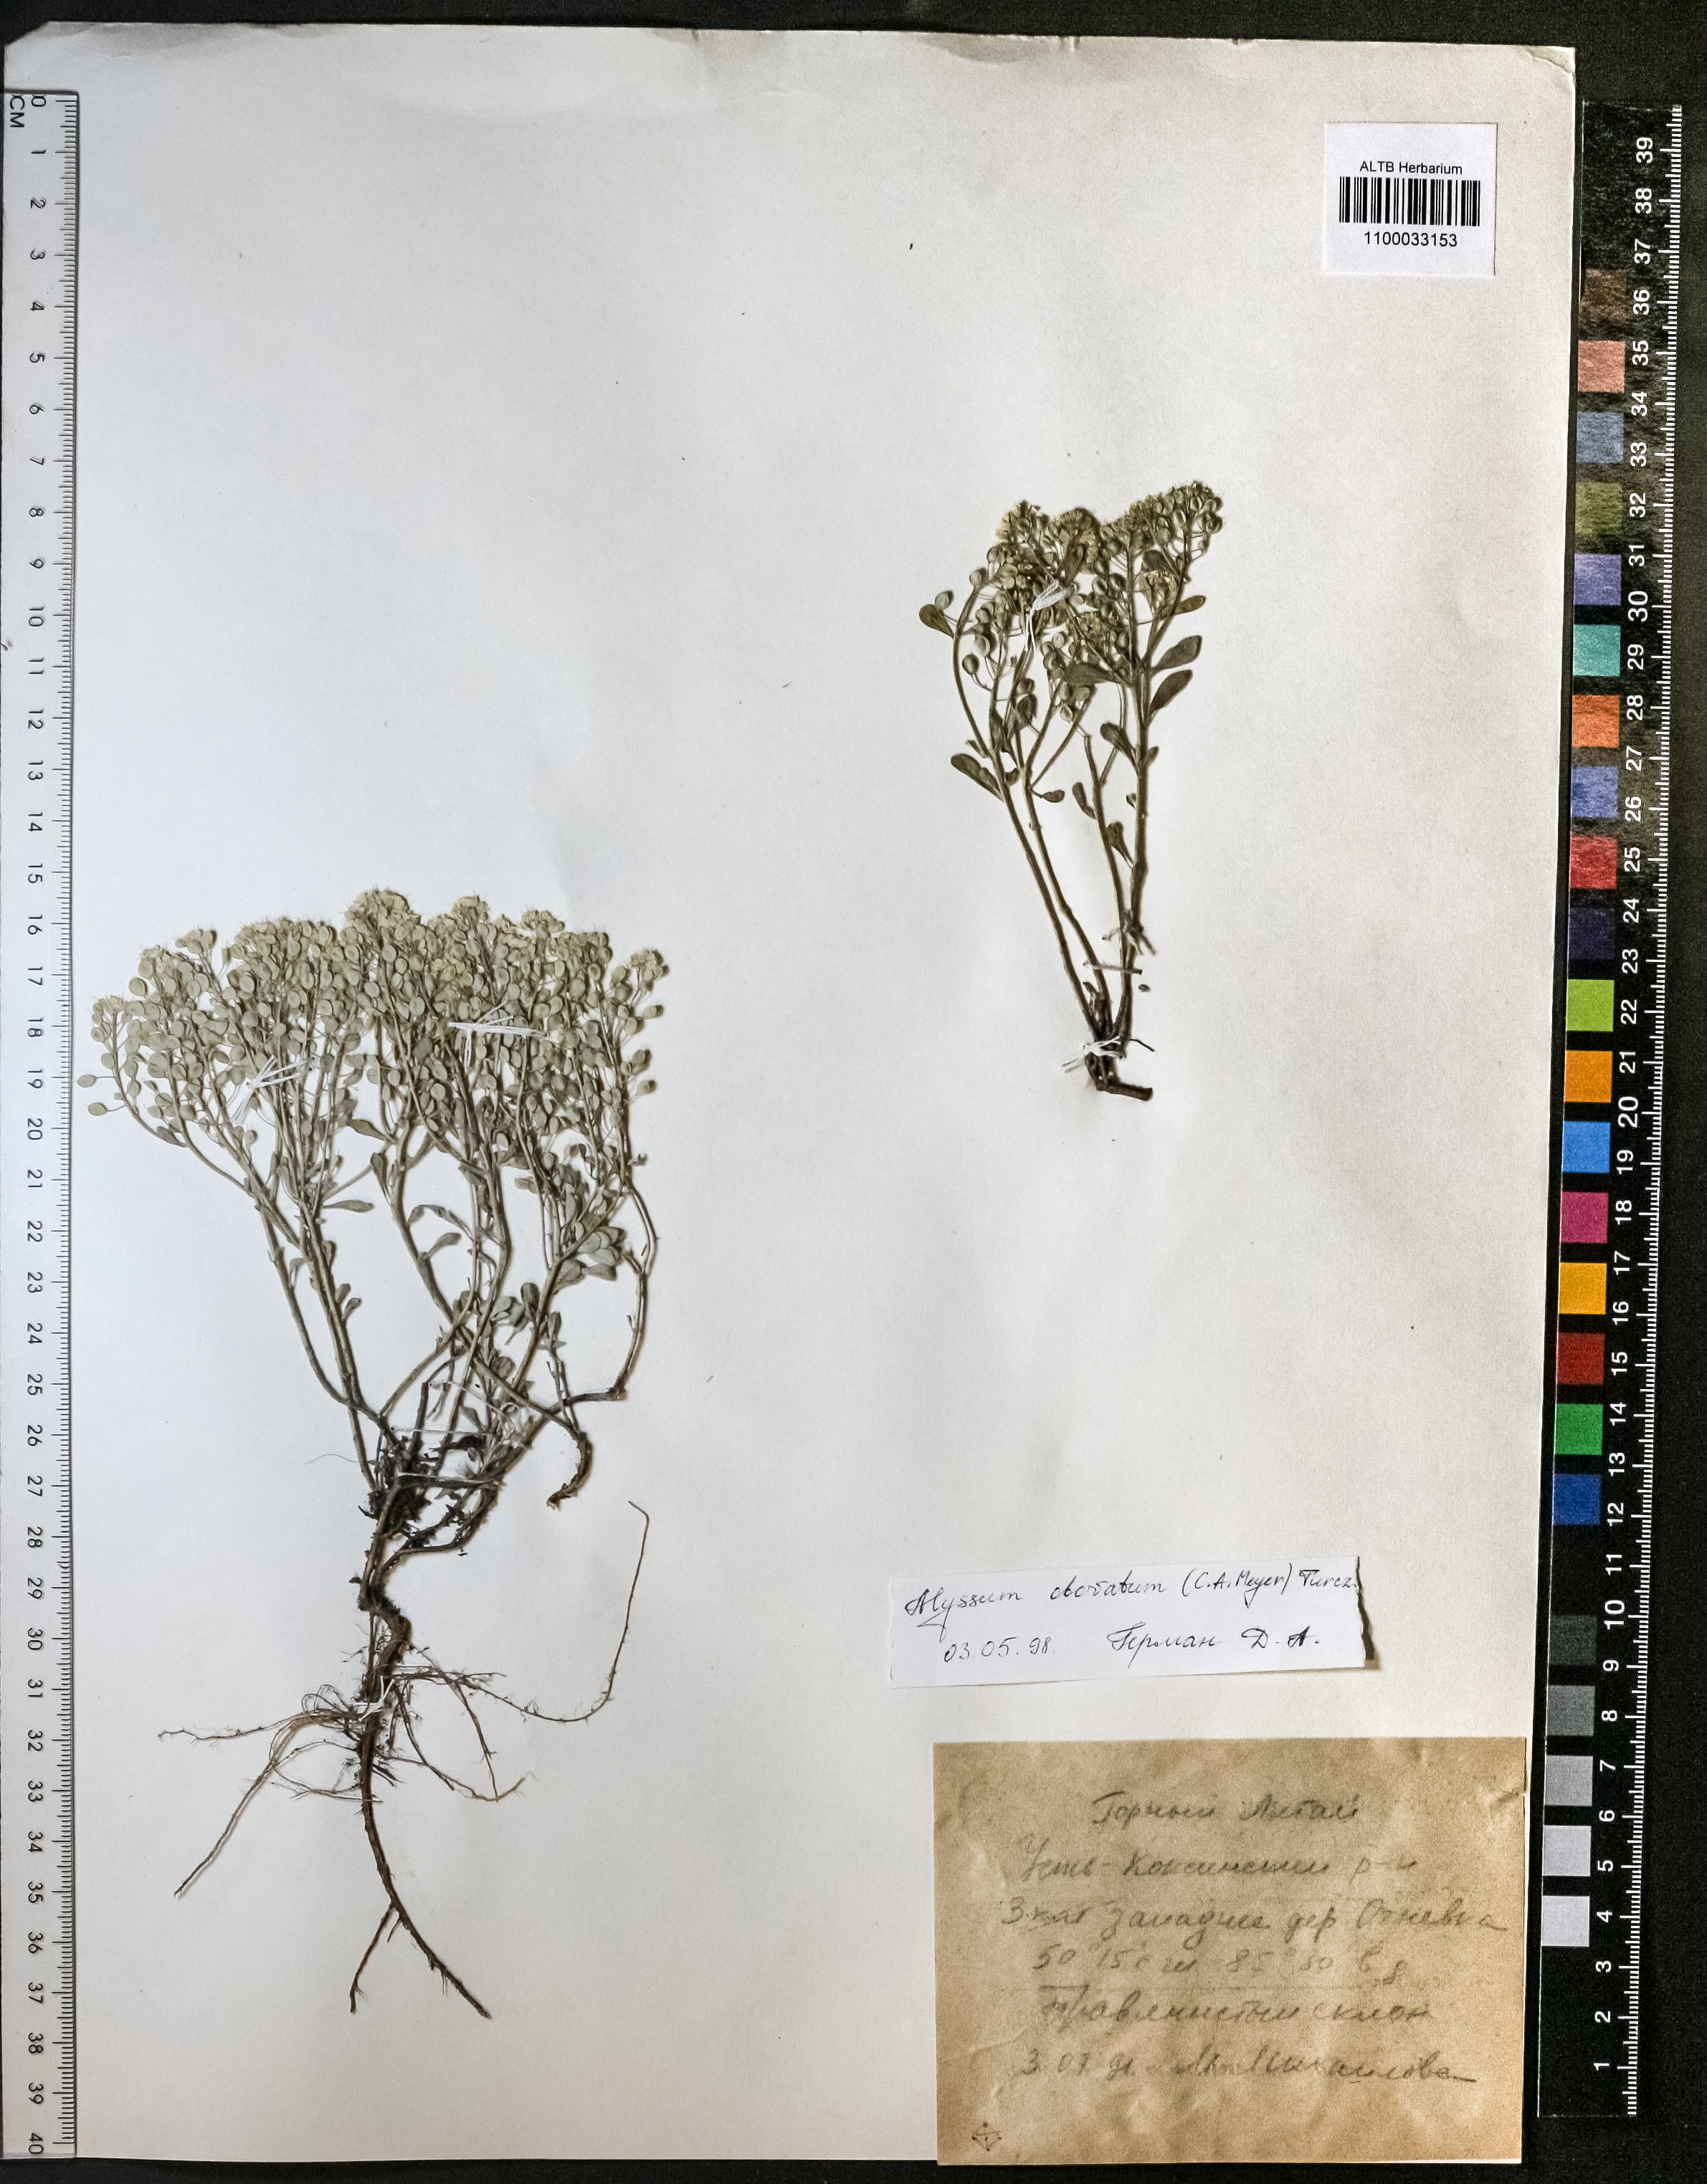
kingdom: Plantae
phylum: Tracheophyta
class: Magnoliopsida
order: Brassicales
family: Brassicaceae
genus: Odontarrhena
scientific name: Odontarrhena obovata
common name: American alyssum
